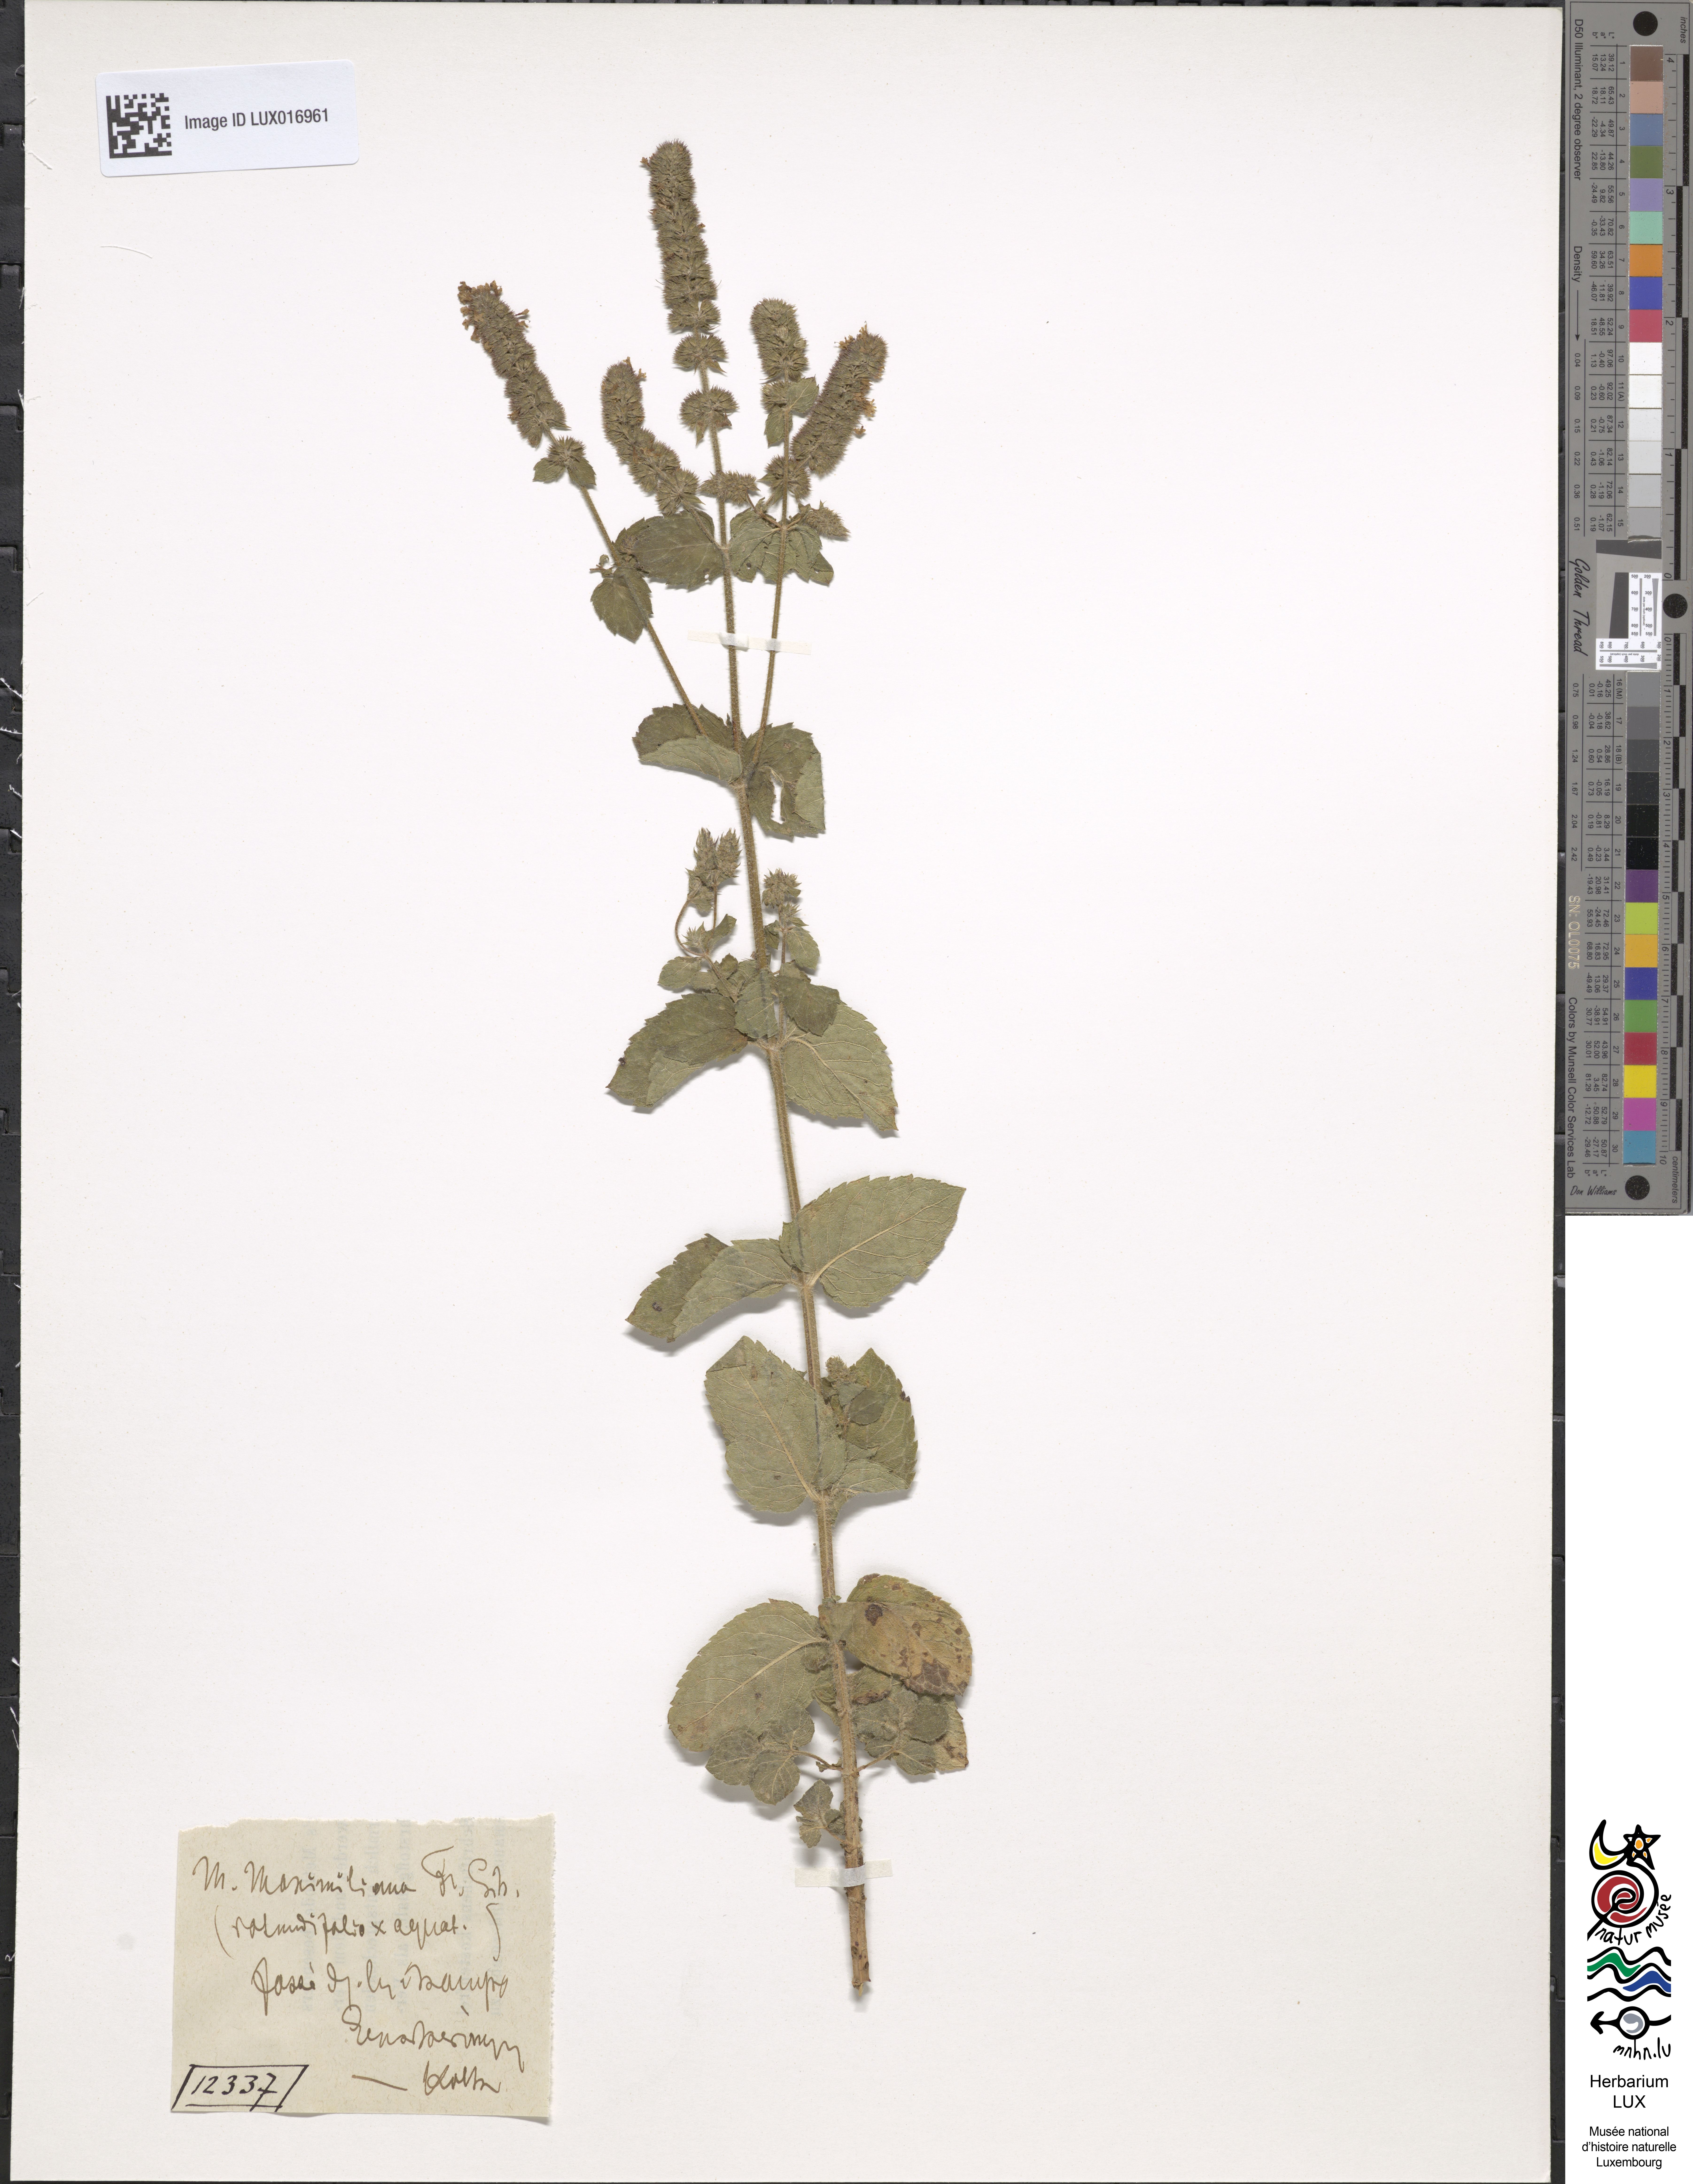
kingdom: Plantae
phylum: Tracheophyta
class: Magnoliopsida
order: Lamiales
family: Lamiaceae
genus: Mentha
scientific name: Mentha suavis
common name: Sweet mint
